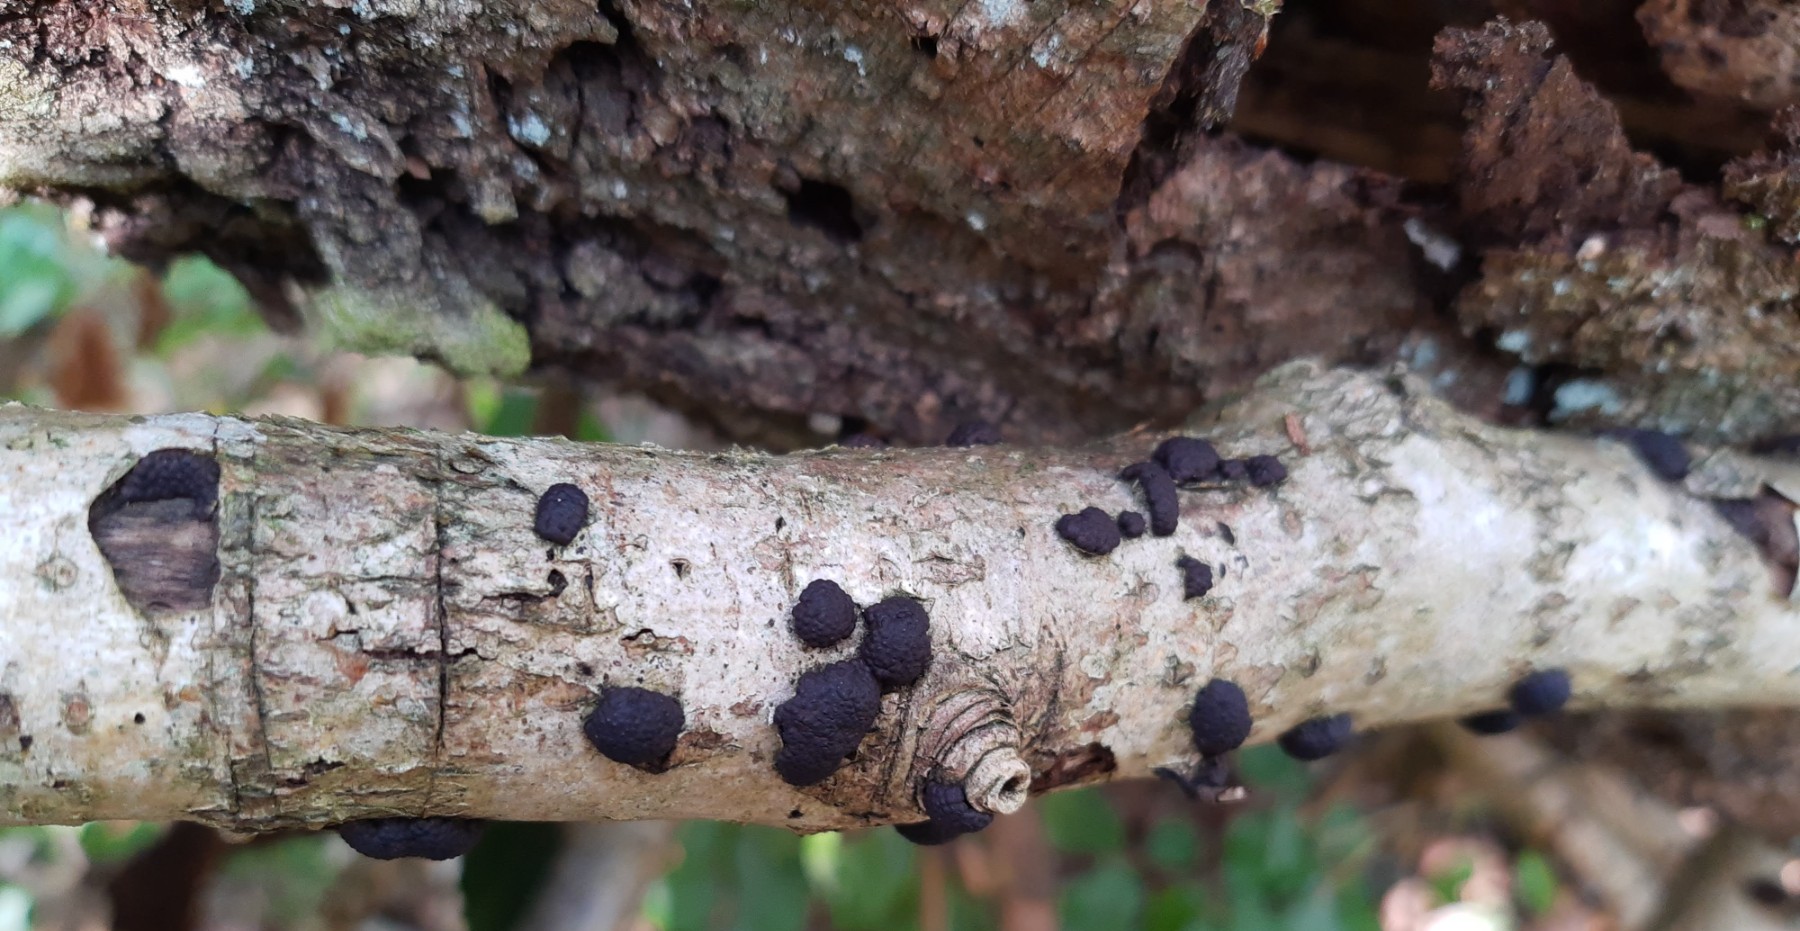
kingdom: Fungi
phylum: Ascomycota
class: Sordariomycetes
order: Xylariales
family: Hypoxylaceae
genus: Jackrogersella
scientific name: Jackrogersella multiformis
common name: foranderlig kulbær
